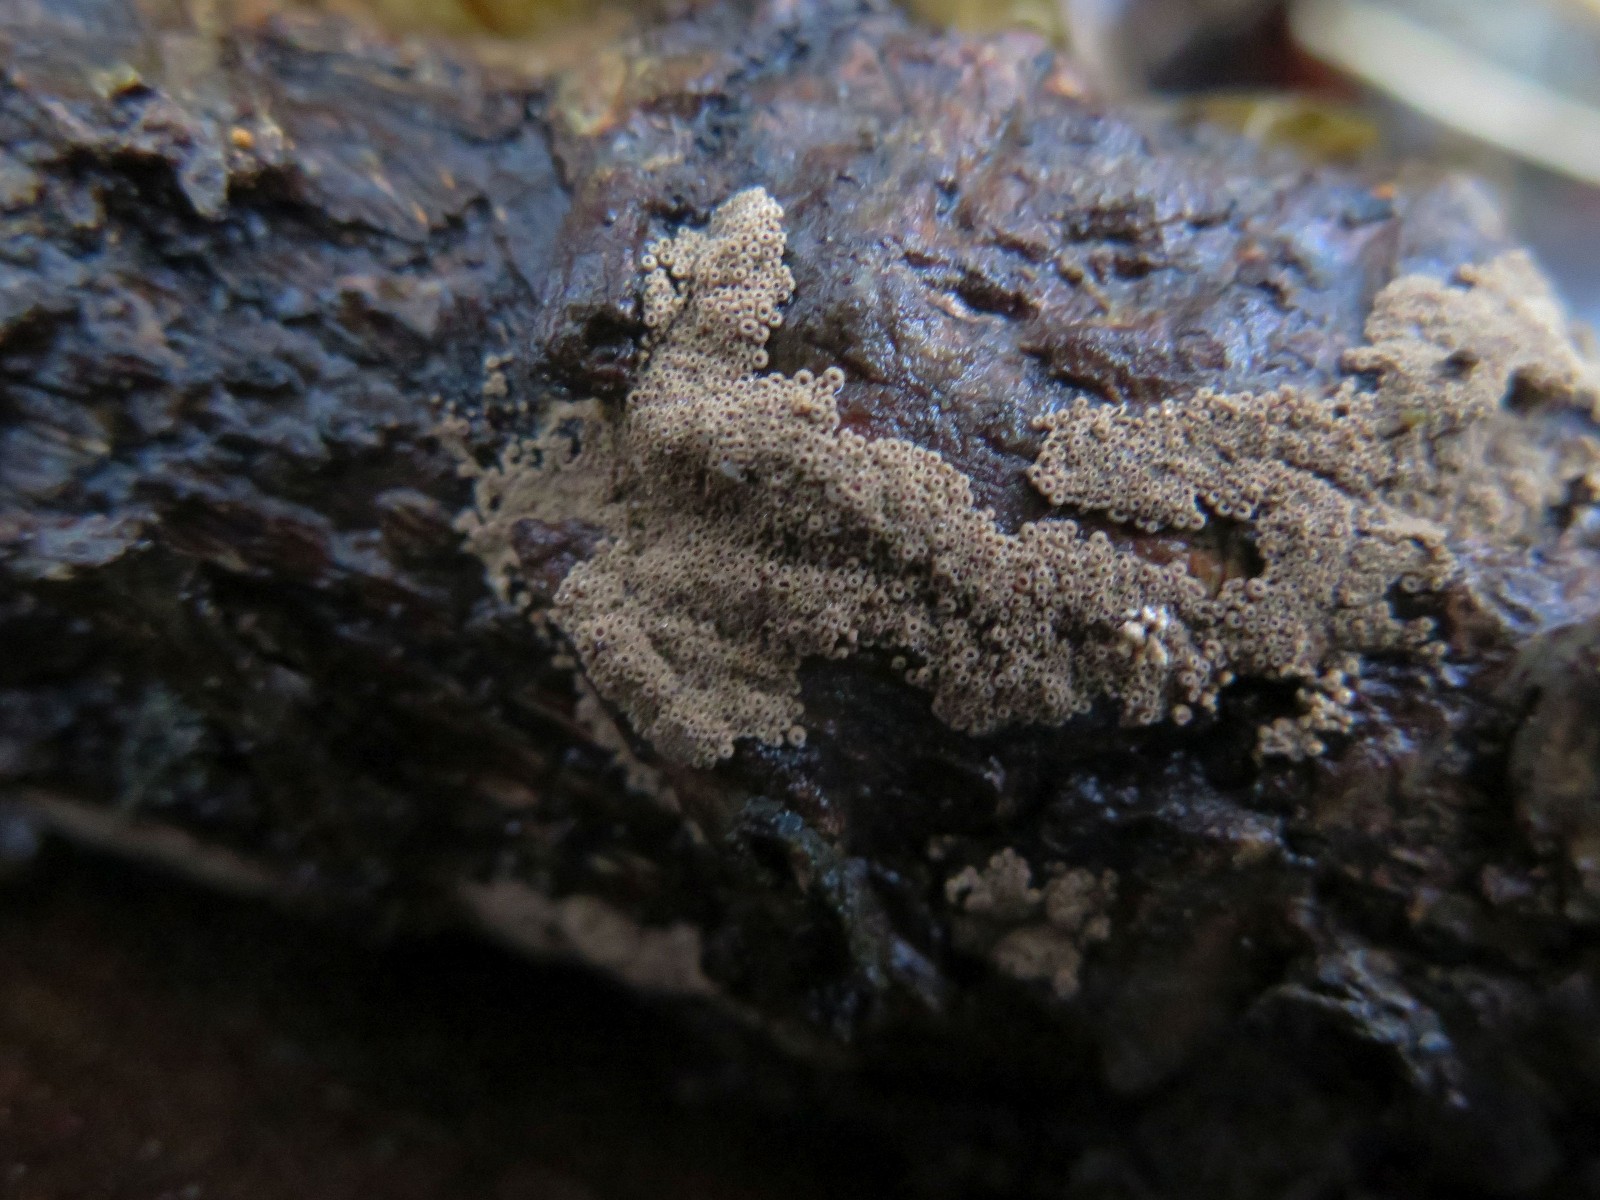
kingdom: Fungi
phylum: Basidiomycota
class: Agaricomycetes
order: Agaricales
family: Niaceae
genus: Merismodes
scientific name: Merismodes anomala
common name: almindelig læderskål
